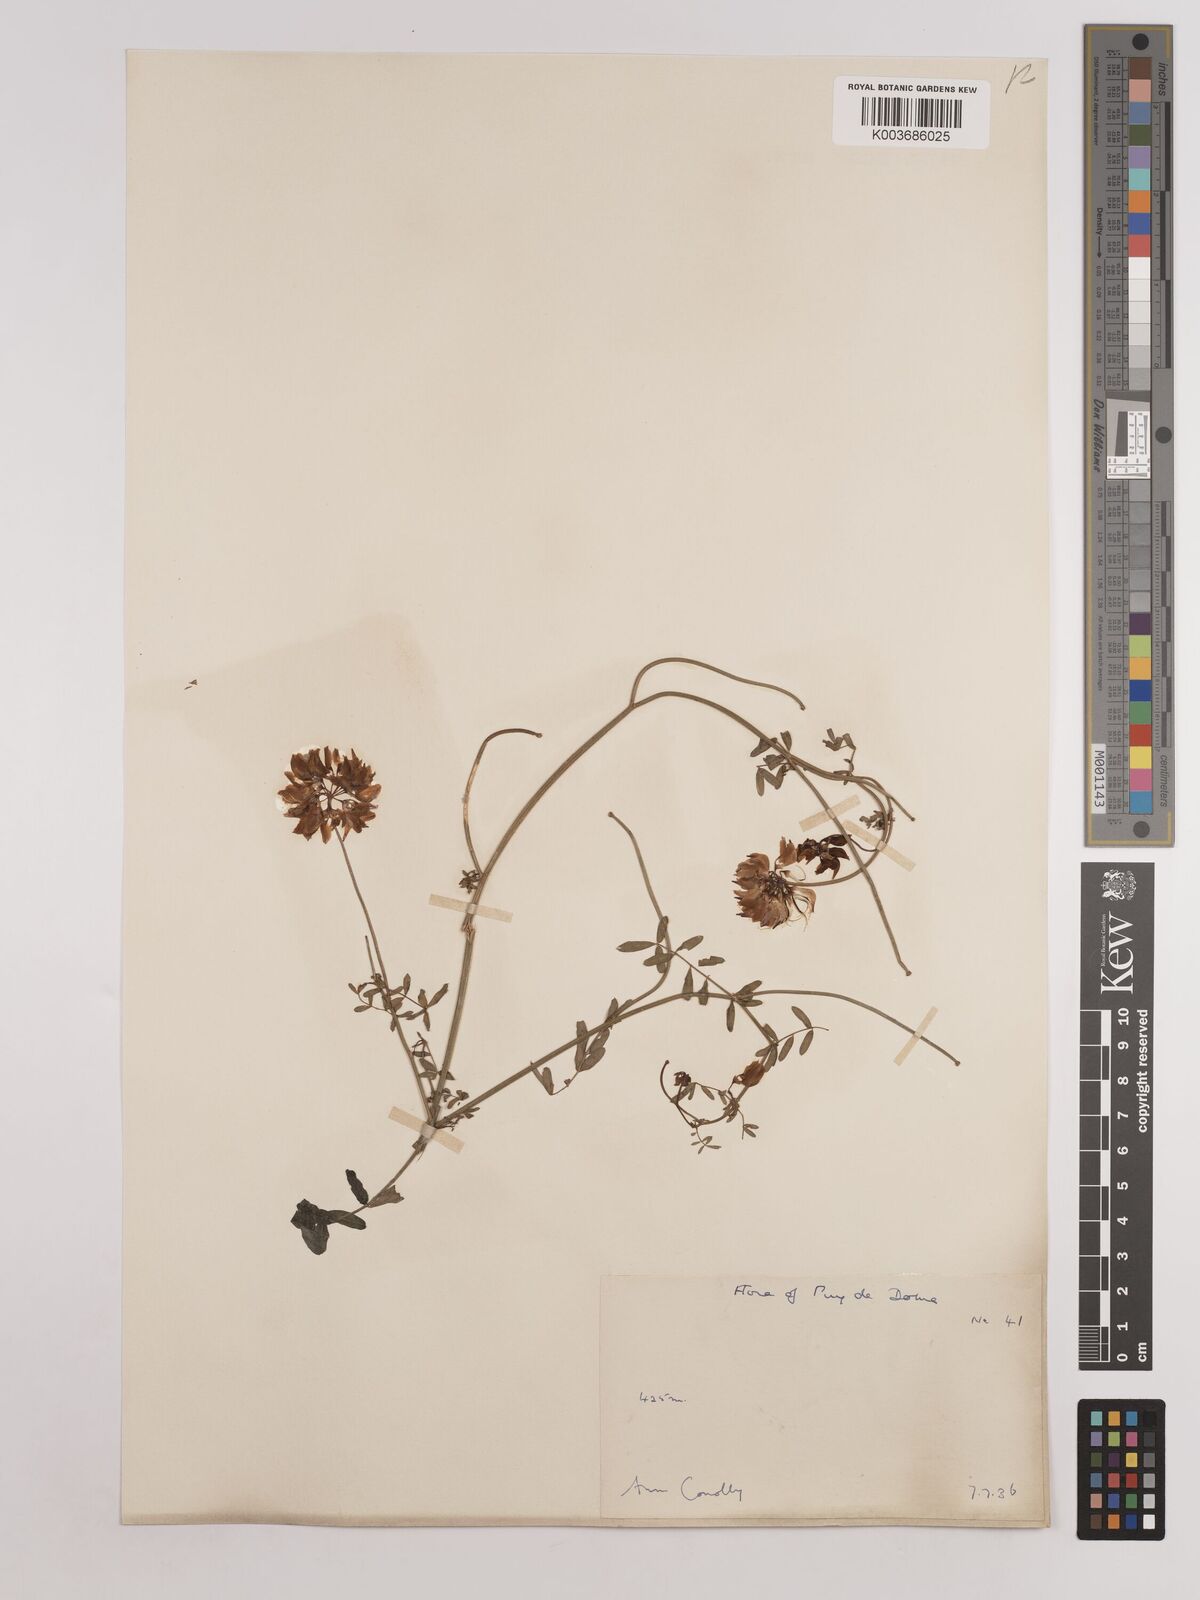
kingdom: Plantae
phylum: Tracheophyta
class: Magnoliopsida
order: Fabales
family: Fabaceae
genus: Coronilla
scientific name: Coronilla varia
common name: Crownvetch
